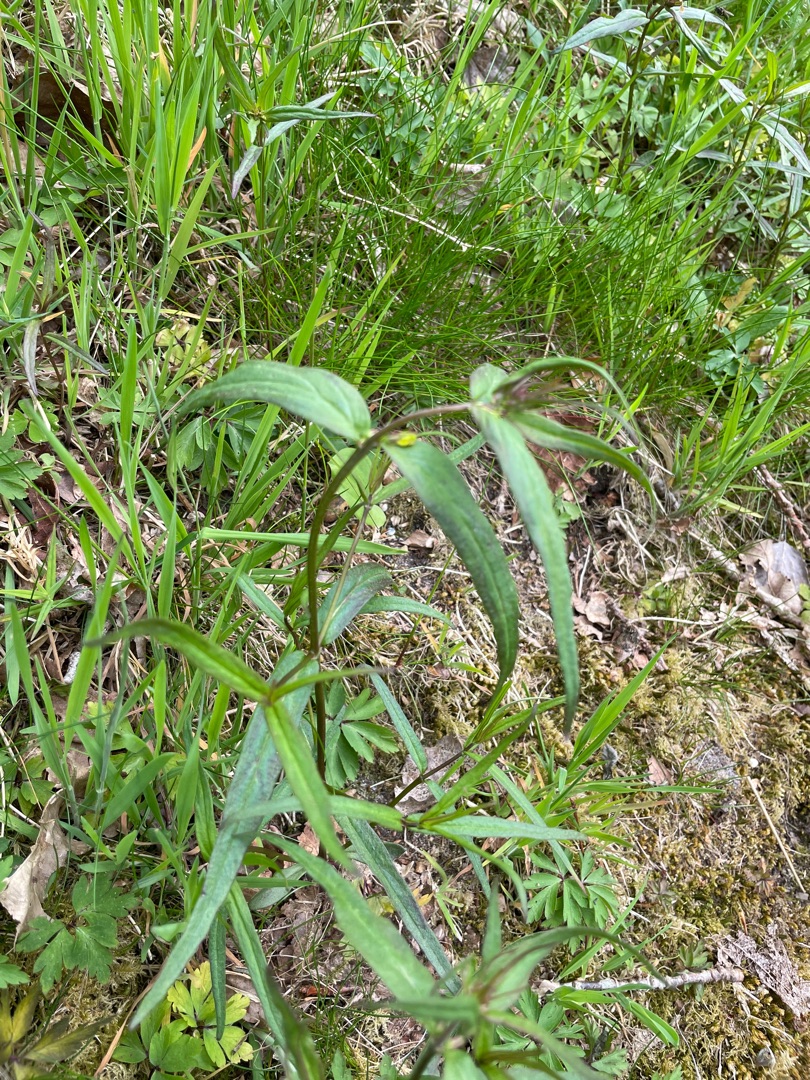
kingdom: Plantae
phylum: Tracheophyta
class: Magnoliopsida
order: Lamiales
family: Orobanchaceae
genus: Melampyrum
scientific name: Melampyrum pratense
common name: Almindelig kohvede
